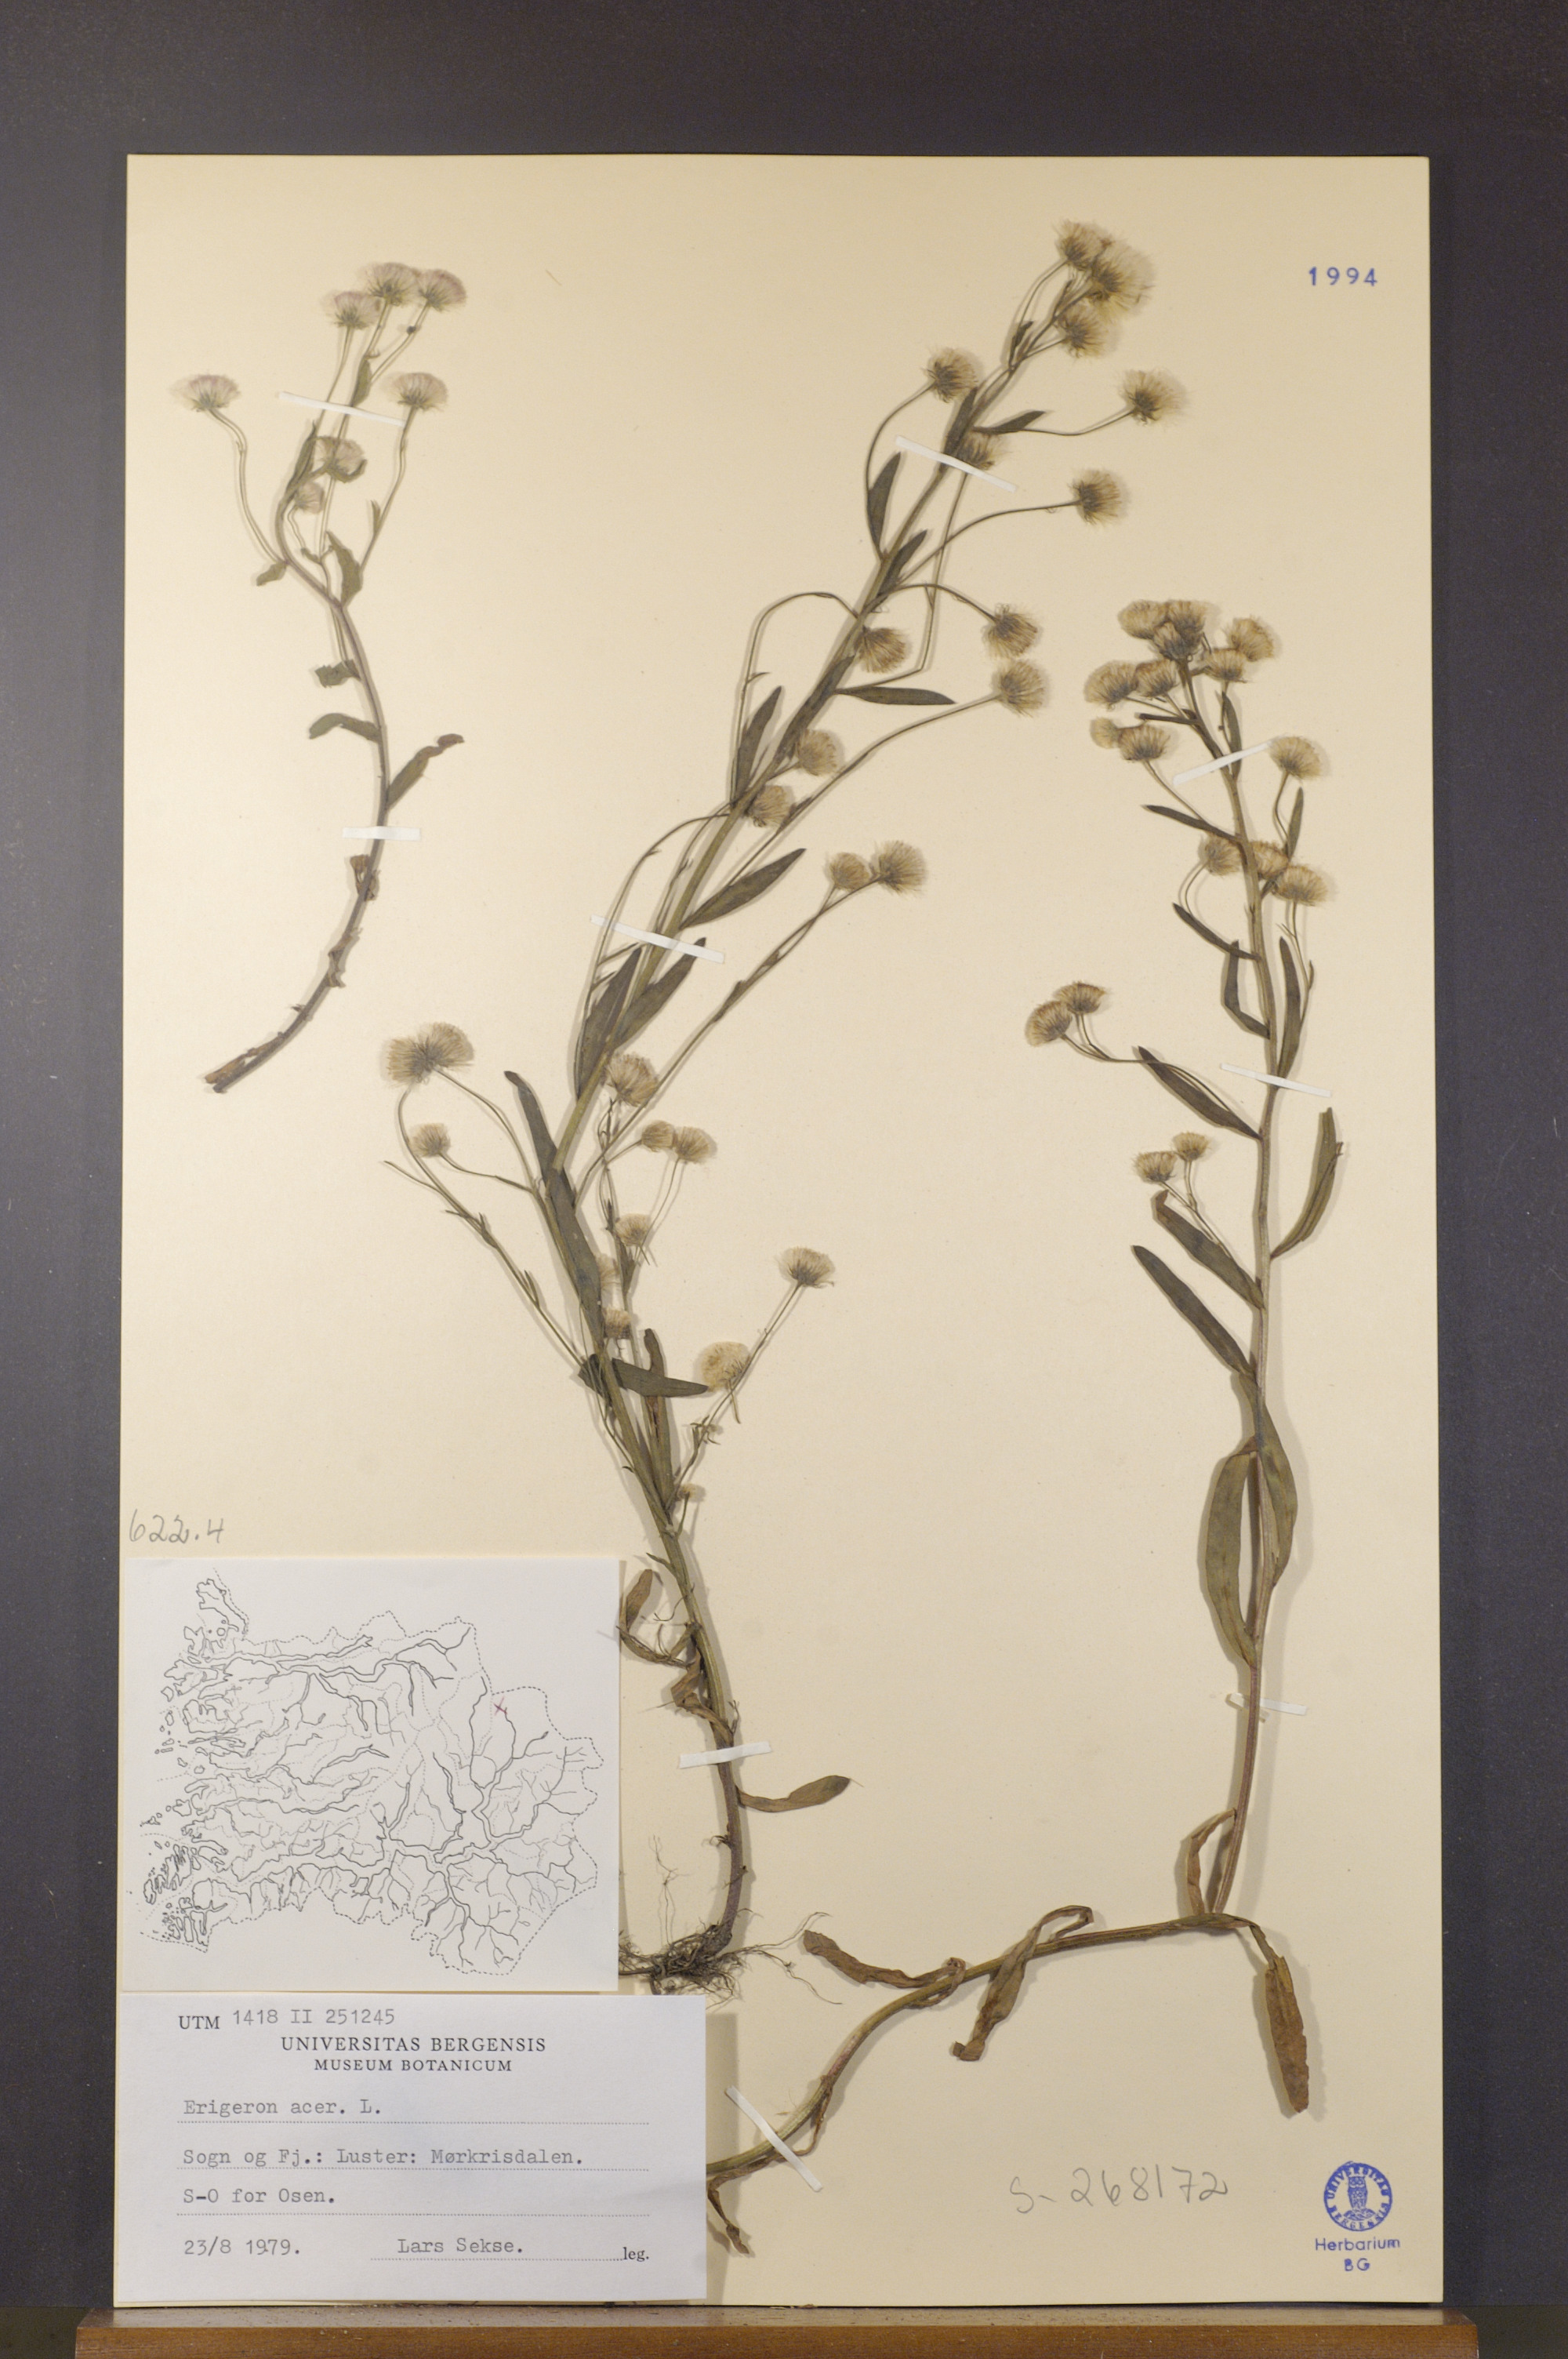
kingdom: Plantae
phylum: Tracheophyta
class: Magnoliopsida
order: Asterales
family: Asteraceae
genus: Erigeron
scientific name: Erigeron acris
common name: Blue fleabane
